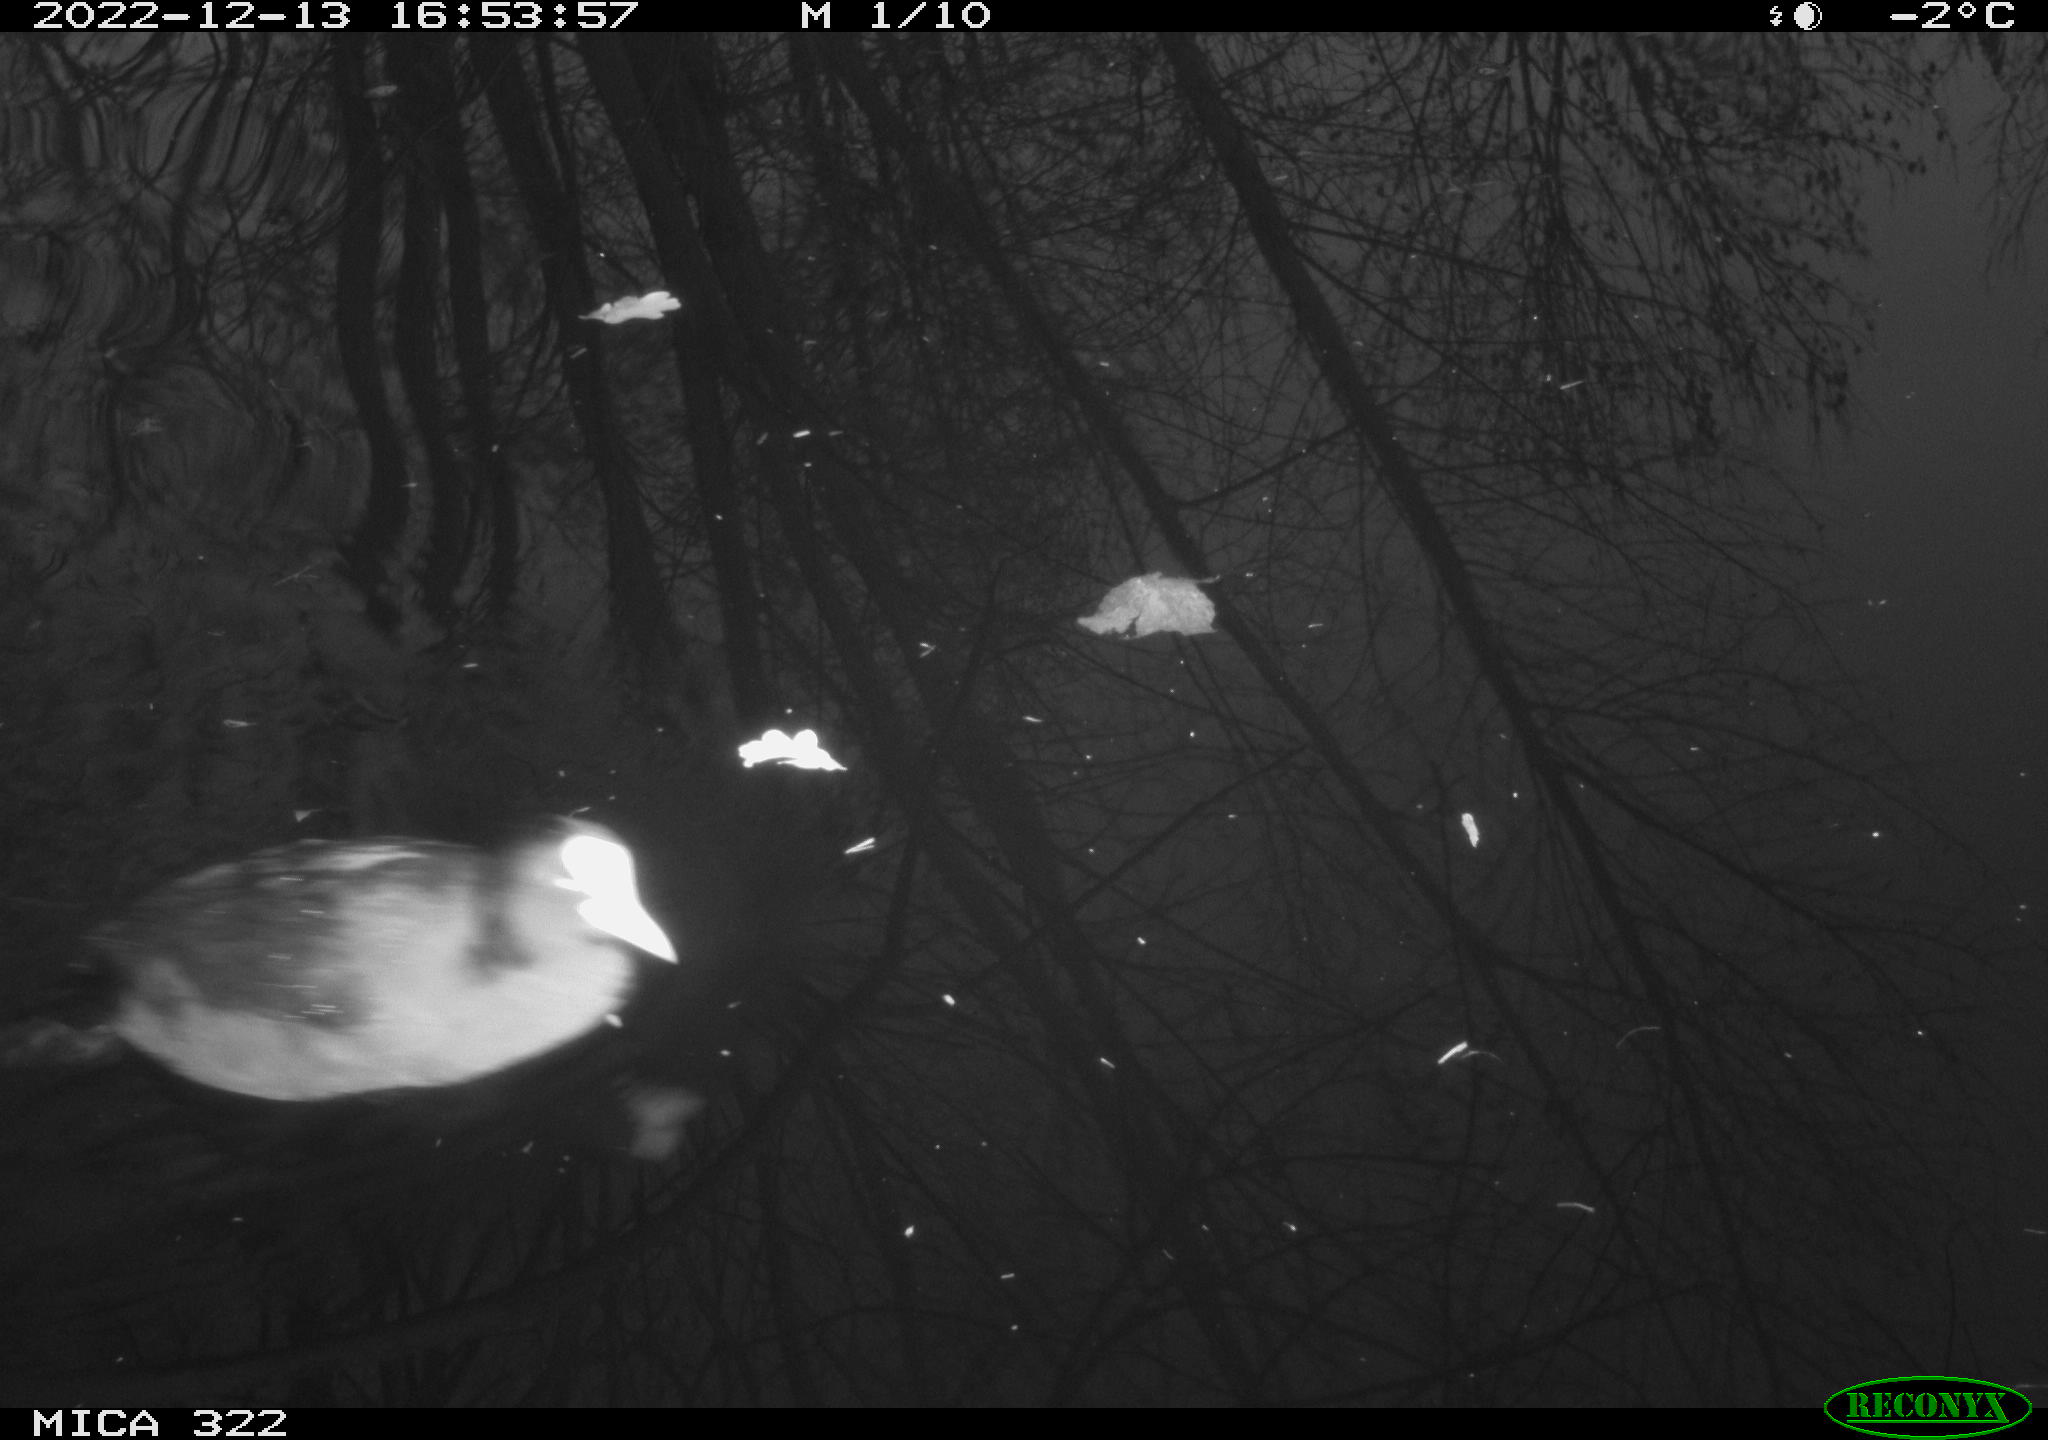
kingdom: Animalia
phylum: Chordata
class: Aves
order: Anseriformes
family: Anatidae
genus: Anas
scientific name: Anas
